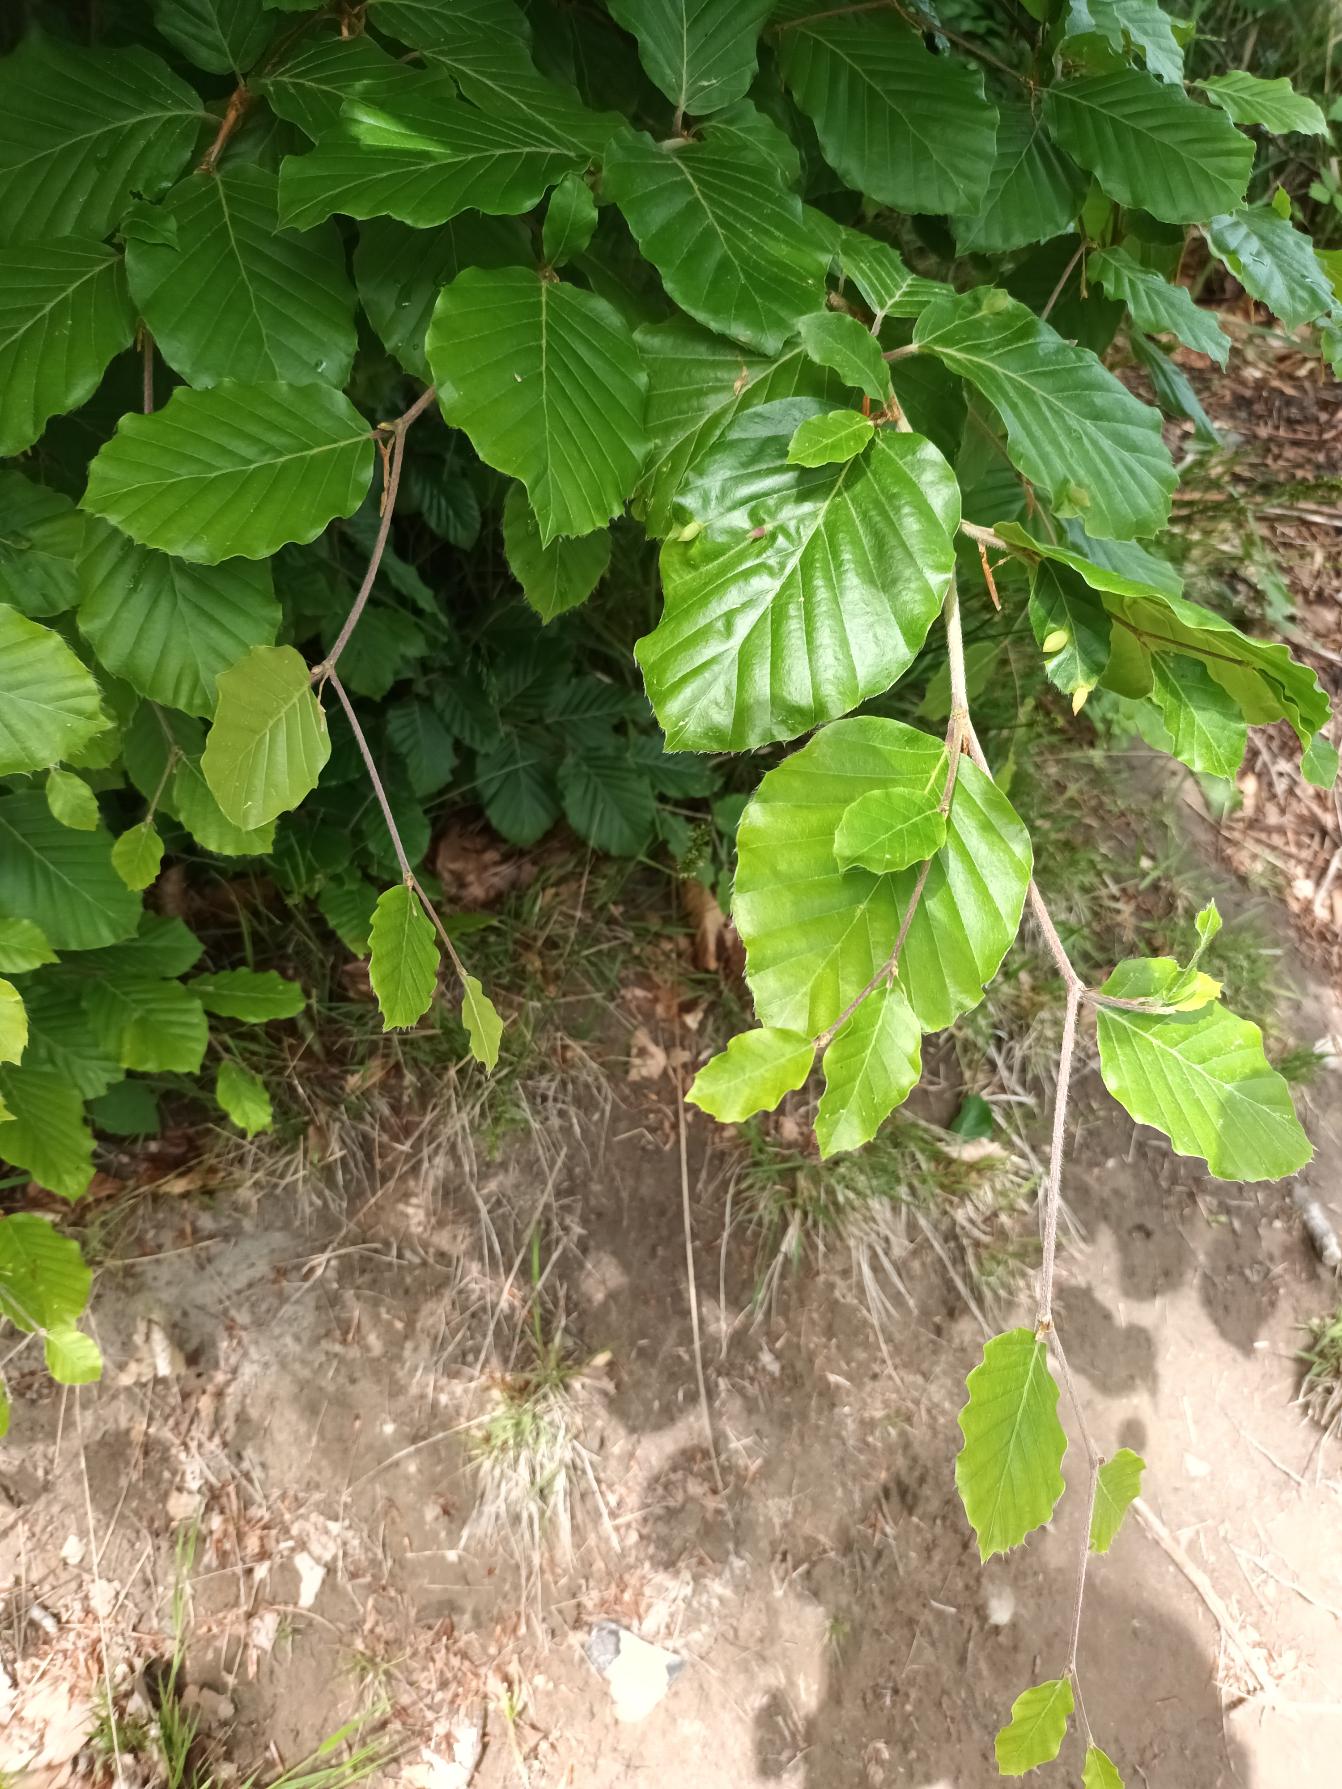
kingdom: Plantae
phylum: Tracheophyta
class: Magnoliopsida
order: Fagales
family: Fagaceae
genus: Fagus
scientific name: Fagus sylvatica
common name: Bøg
